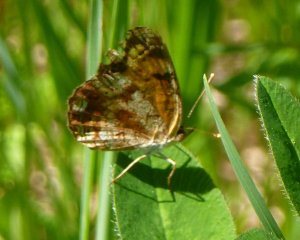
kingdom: Animalia
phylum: Arthropoda
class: Insecta
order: Lepidoptera
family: Nymphalidae
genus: Phyciodes
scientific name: Phyciodes tharos
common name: Northern Crescent
